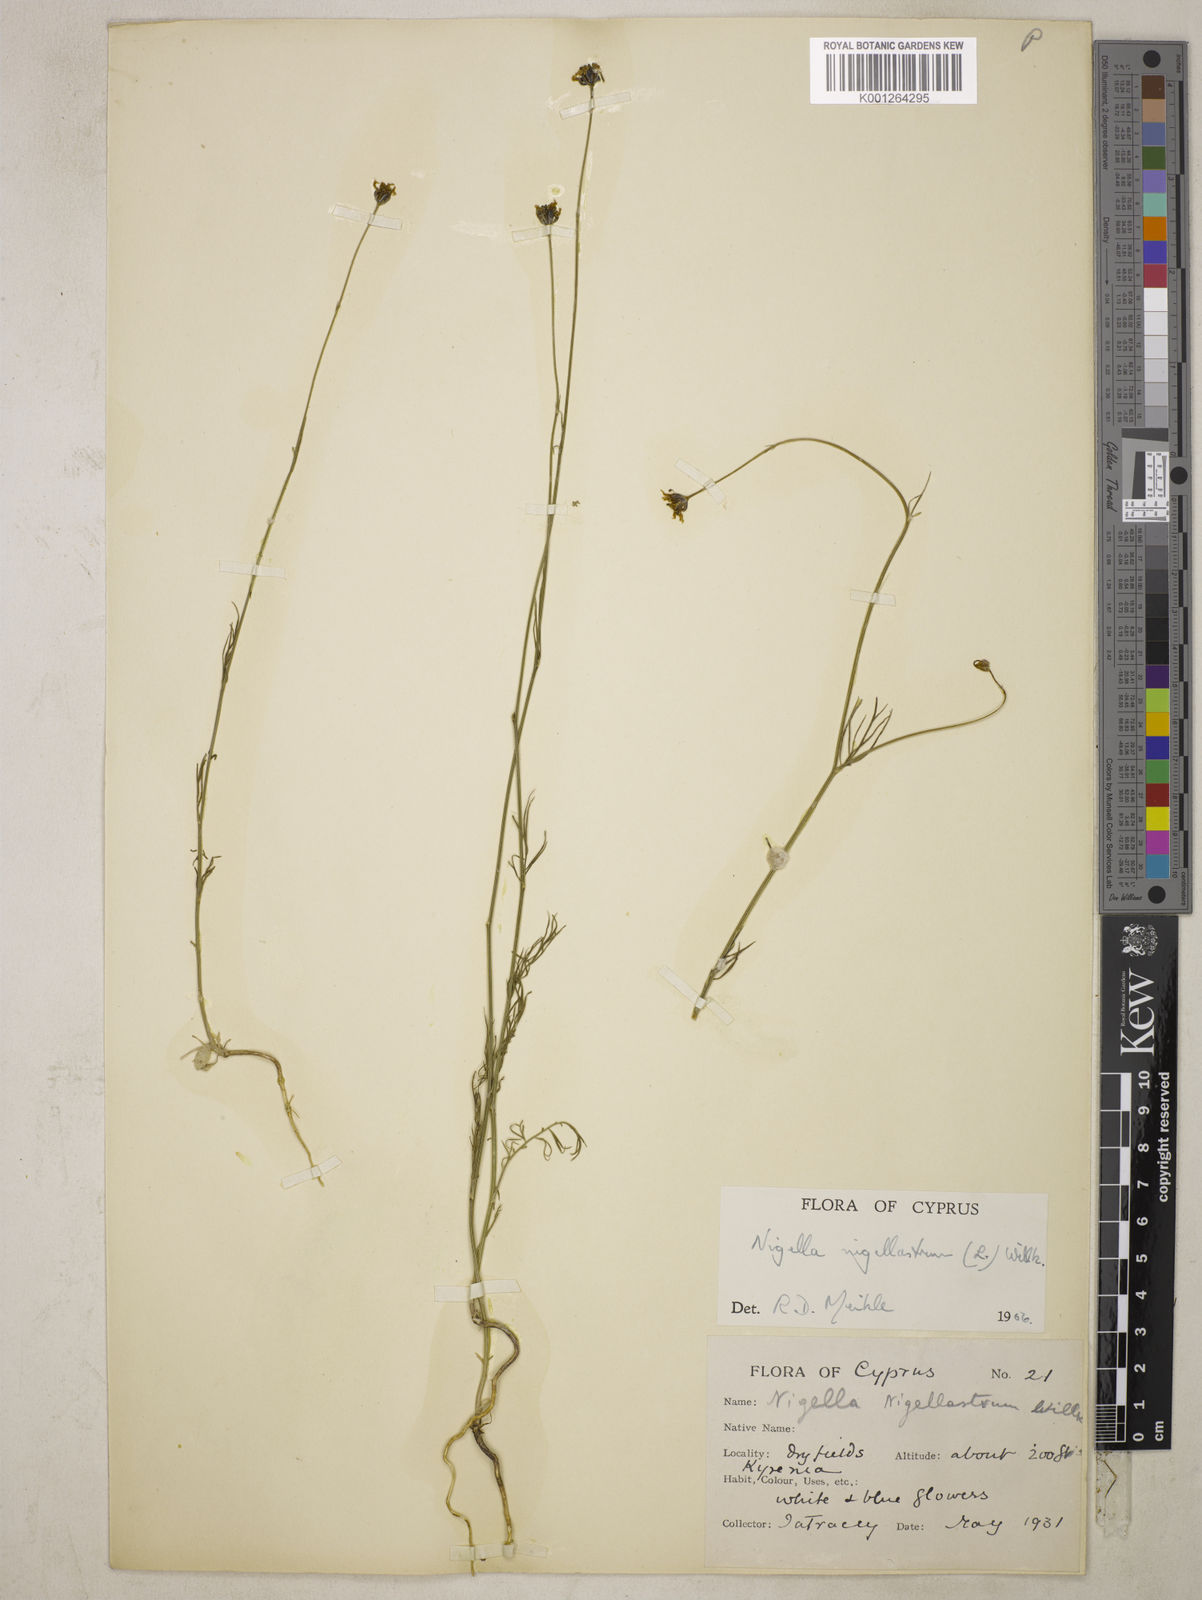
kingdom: Plantae
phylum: Tracheophyta
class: Magnoliopsida
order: Ranunculales
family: Ranunculaceae
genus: Garidella
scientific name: Garidella nigellastrum
